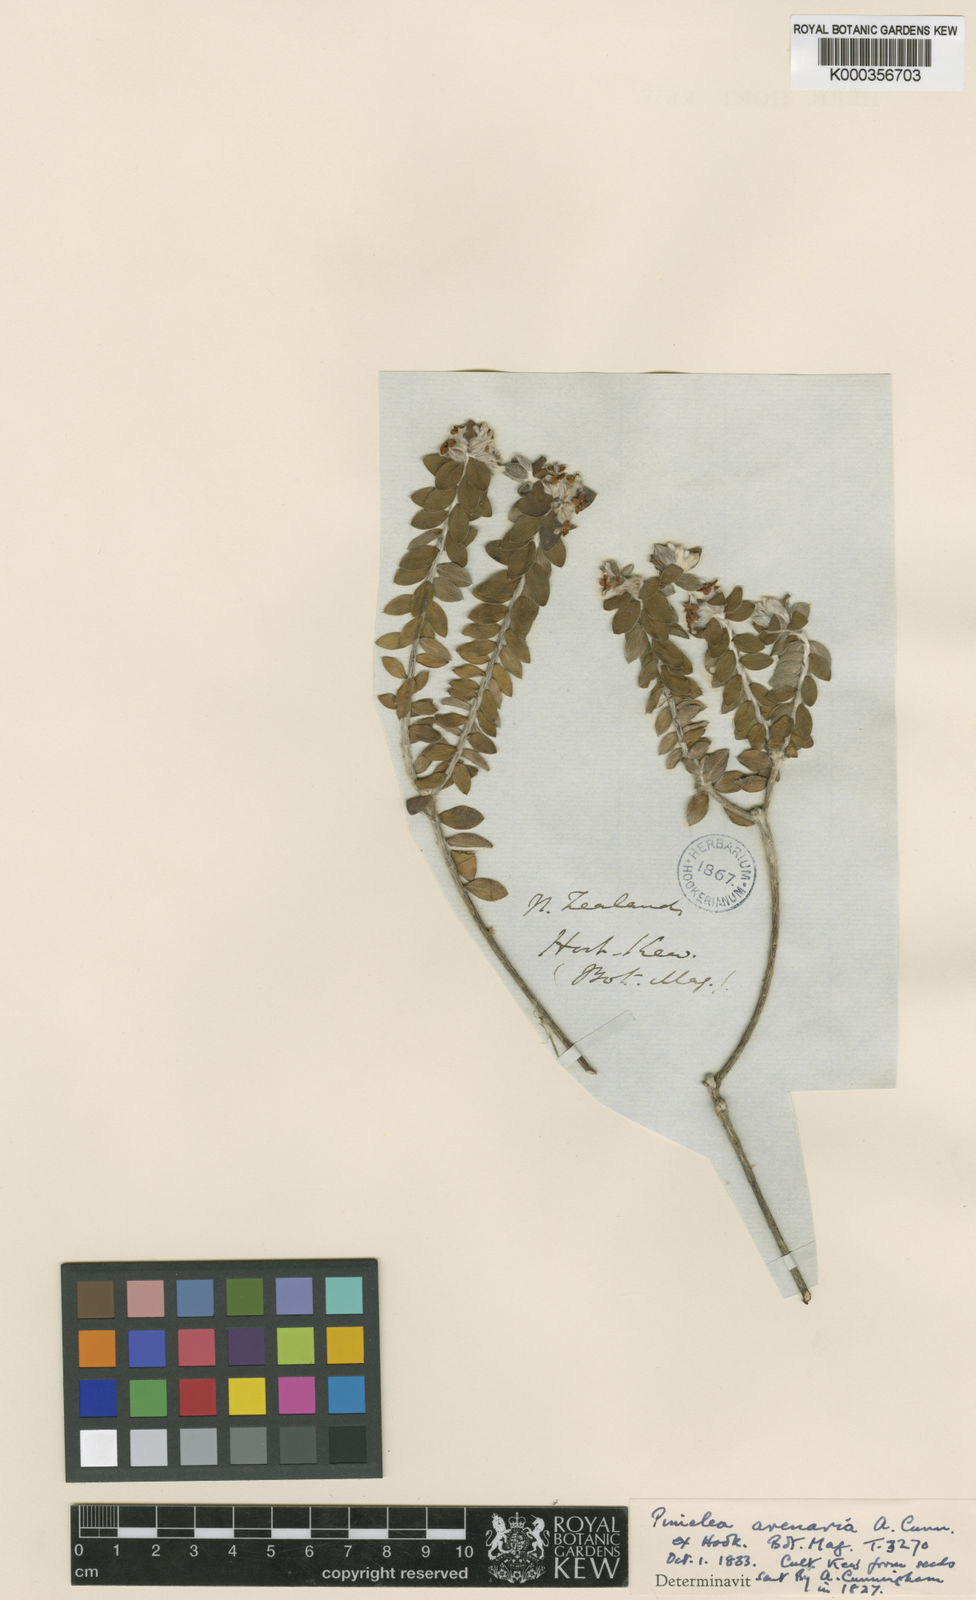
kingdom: Plantae
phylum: Tracheophyta
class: Magnoliopsida
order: Malvales
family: Thymelaeaceae
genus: Pimelea
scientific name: Pimelea villosa
